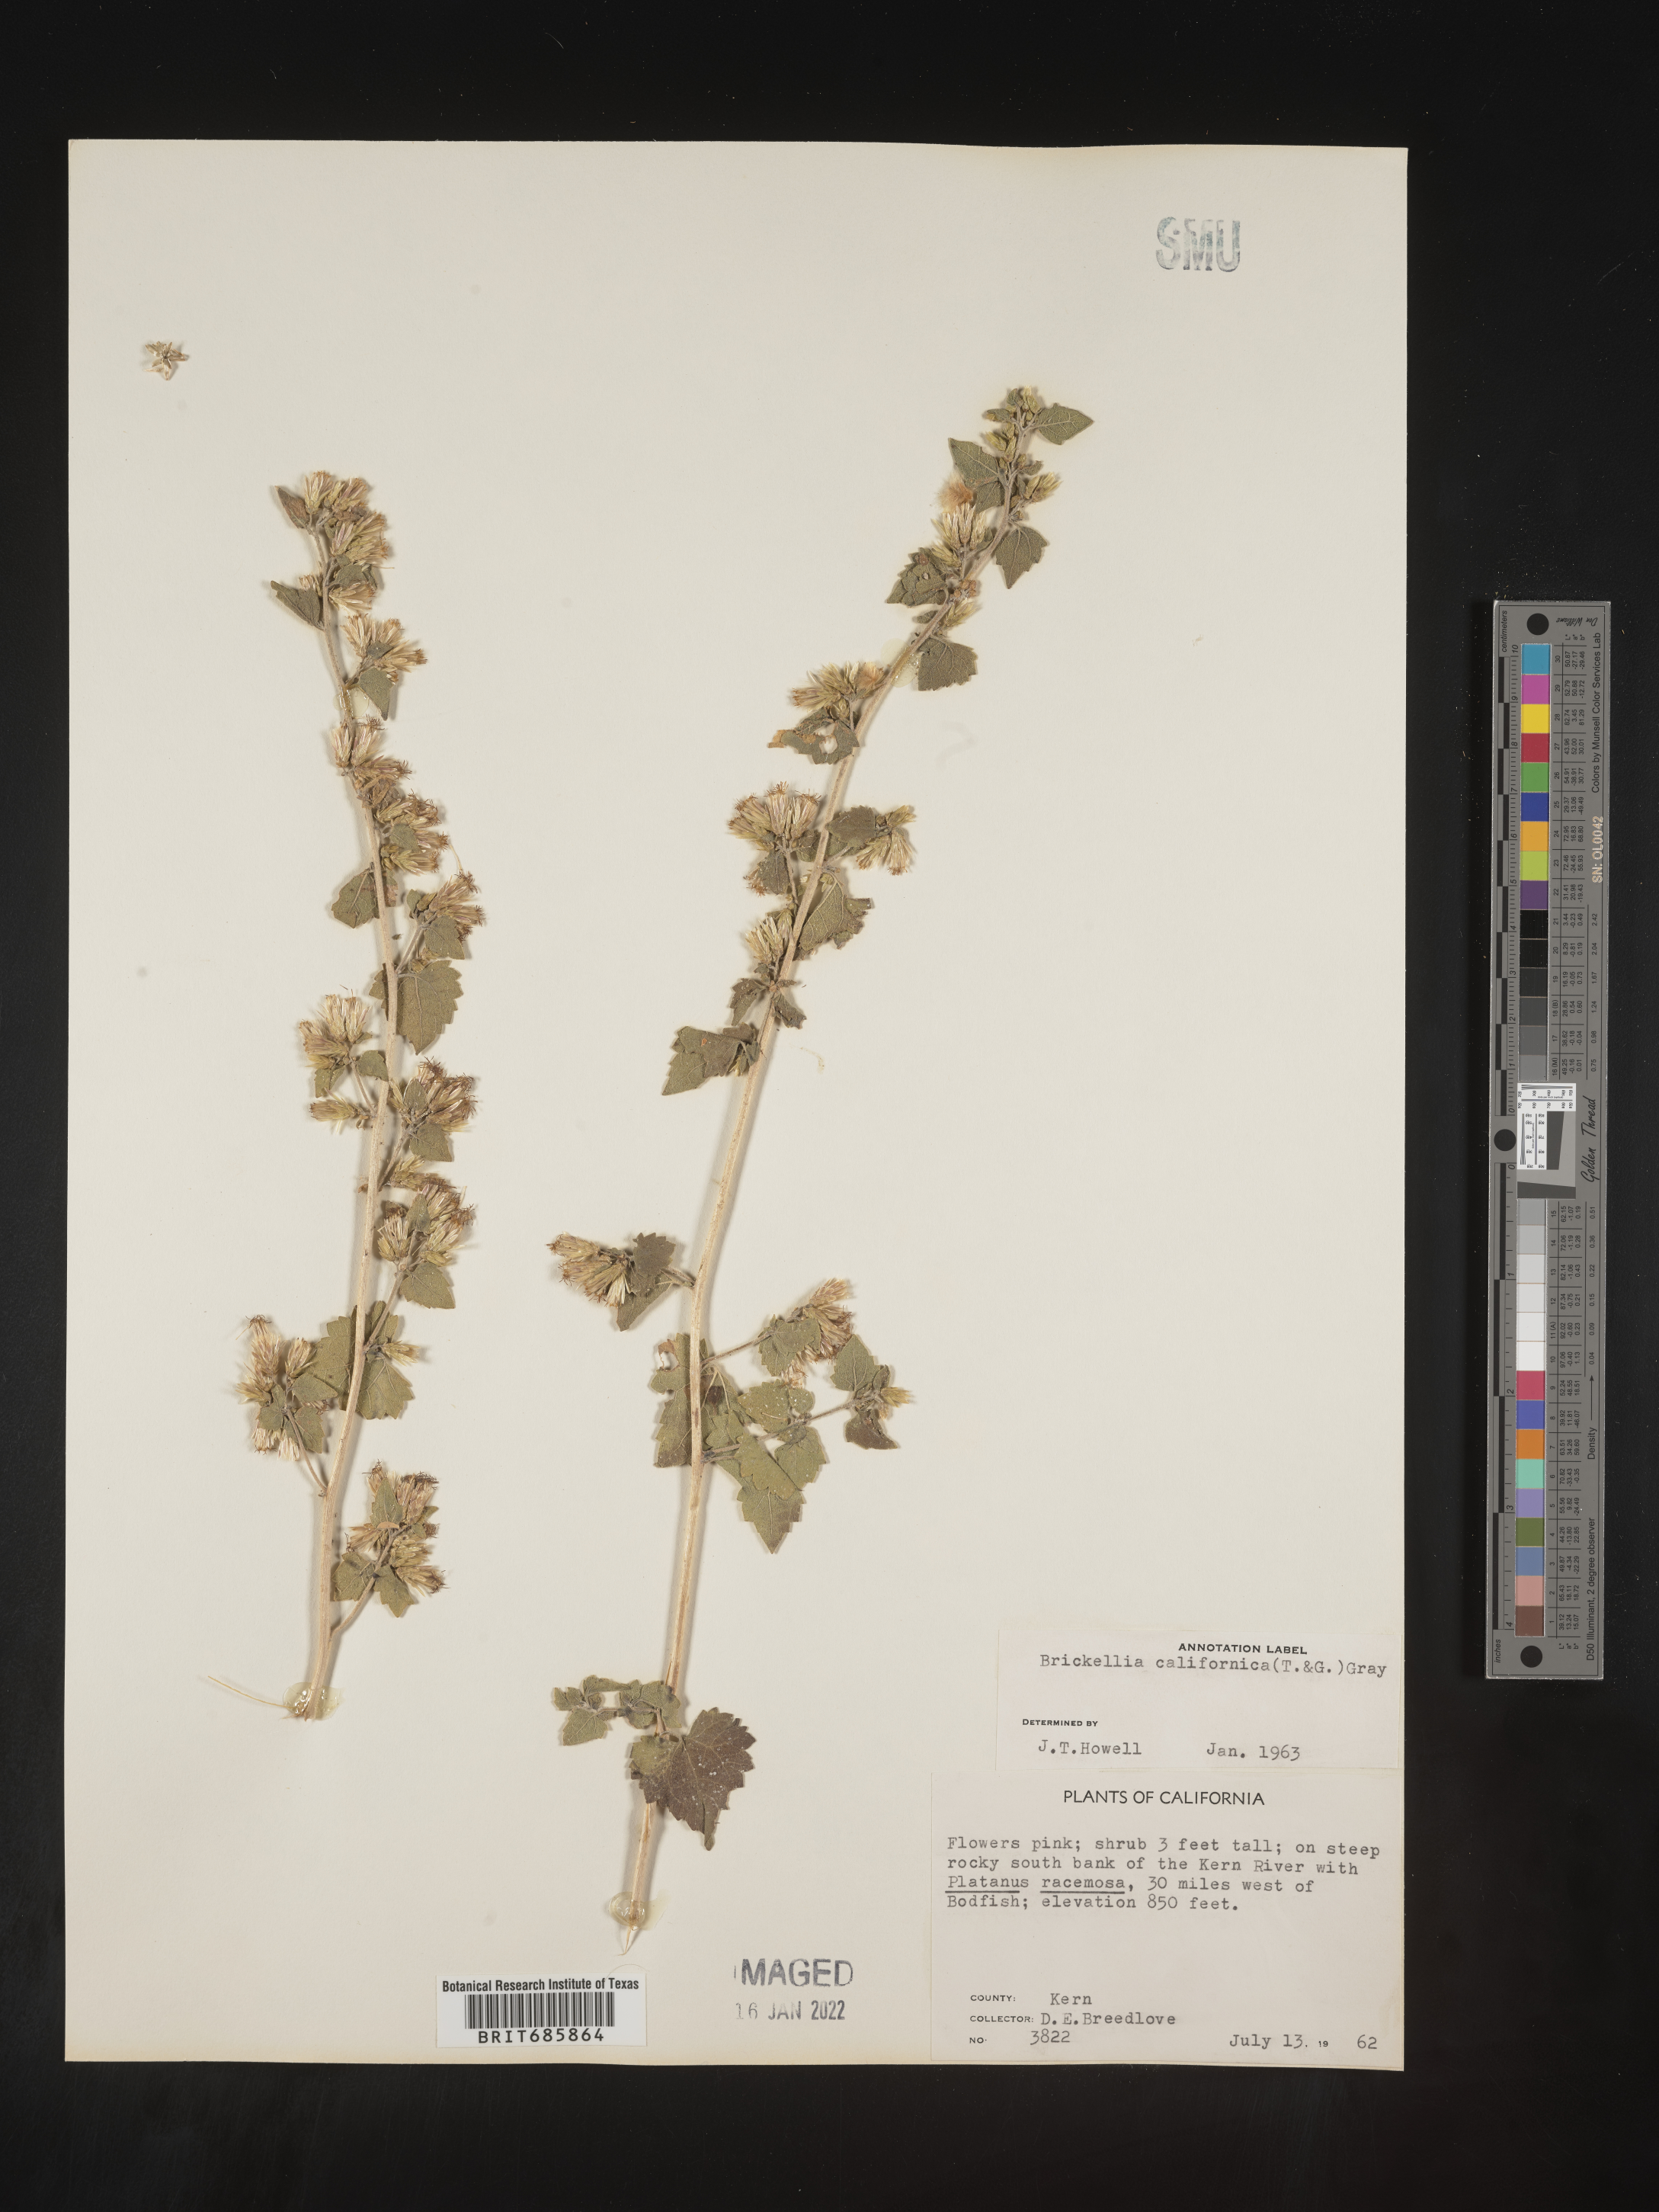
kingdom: Plantae
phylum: Tracheophyta
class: Magnoliopsida
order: Asterales
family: Asteraceae
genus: Brickellia
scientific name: Brickellia californica
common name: California brickellbush
